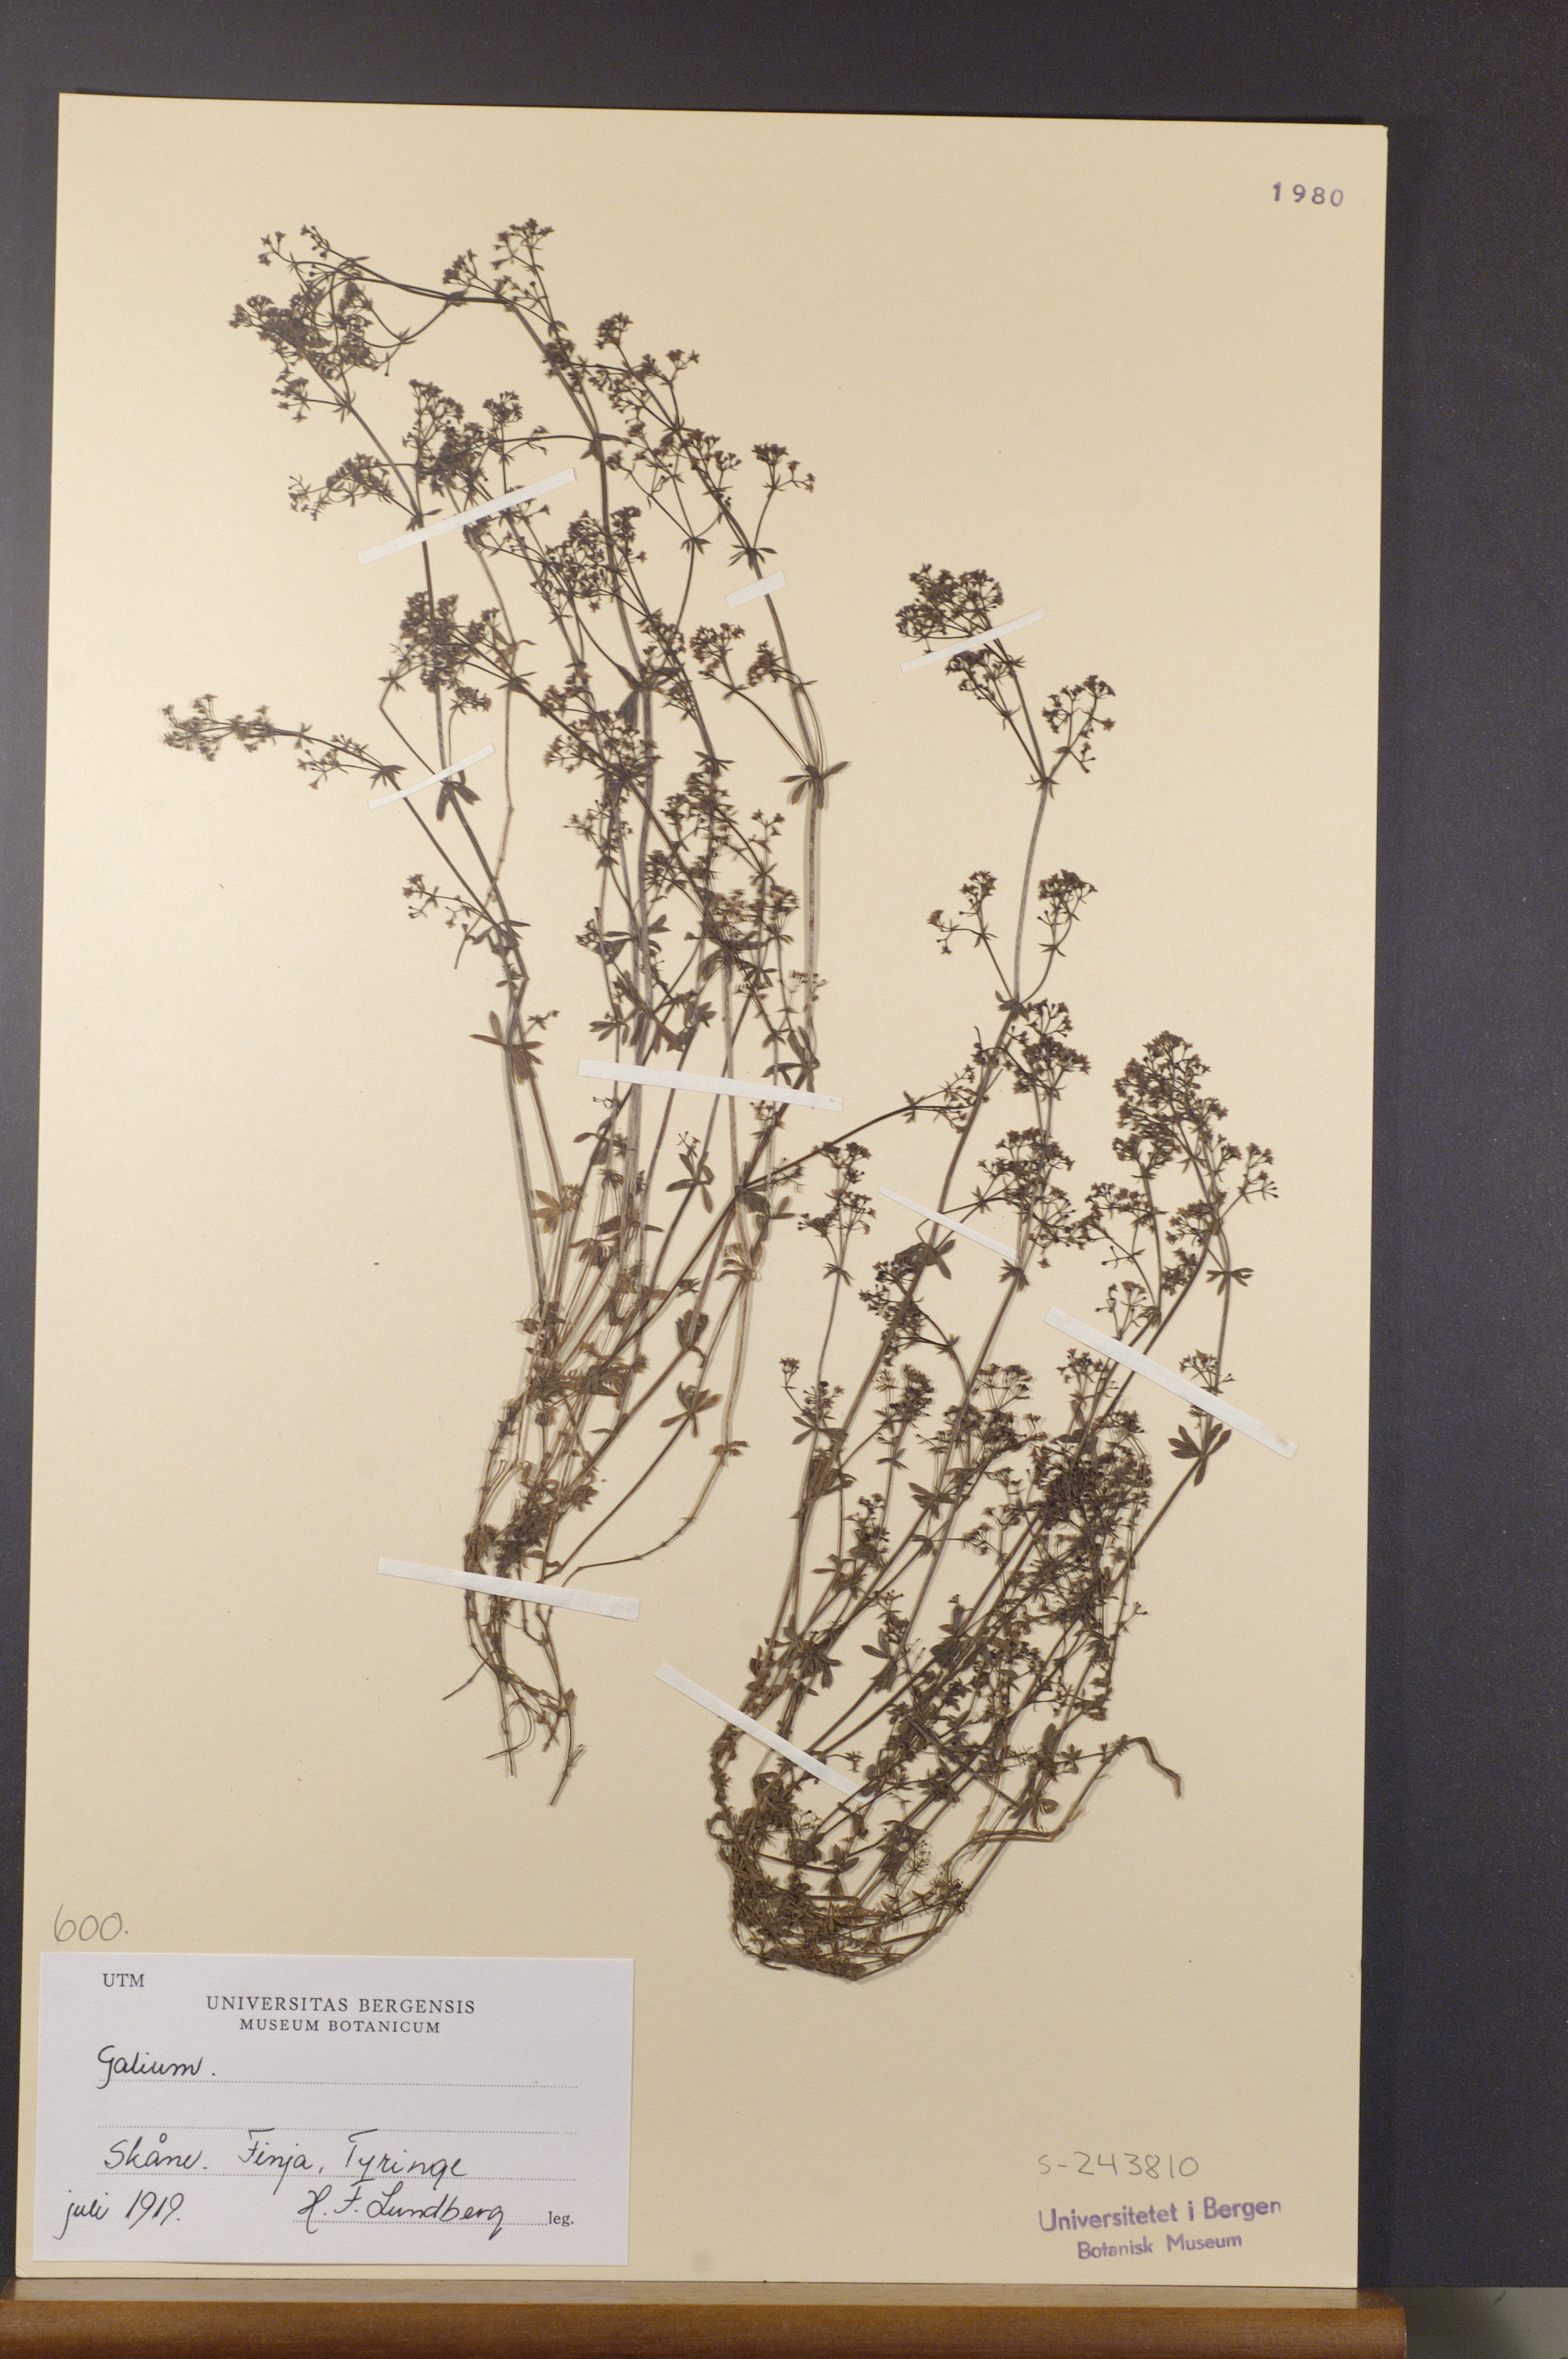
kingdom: Plantae
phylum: Tracheophyta
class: Magnoliopsida
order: Gentianales
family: Rubiaceae
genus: Galium
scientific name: Galium
